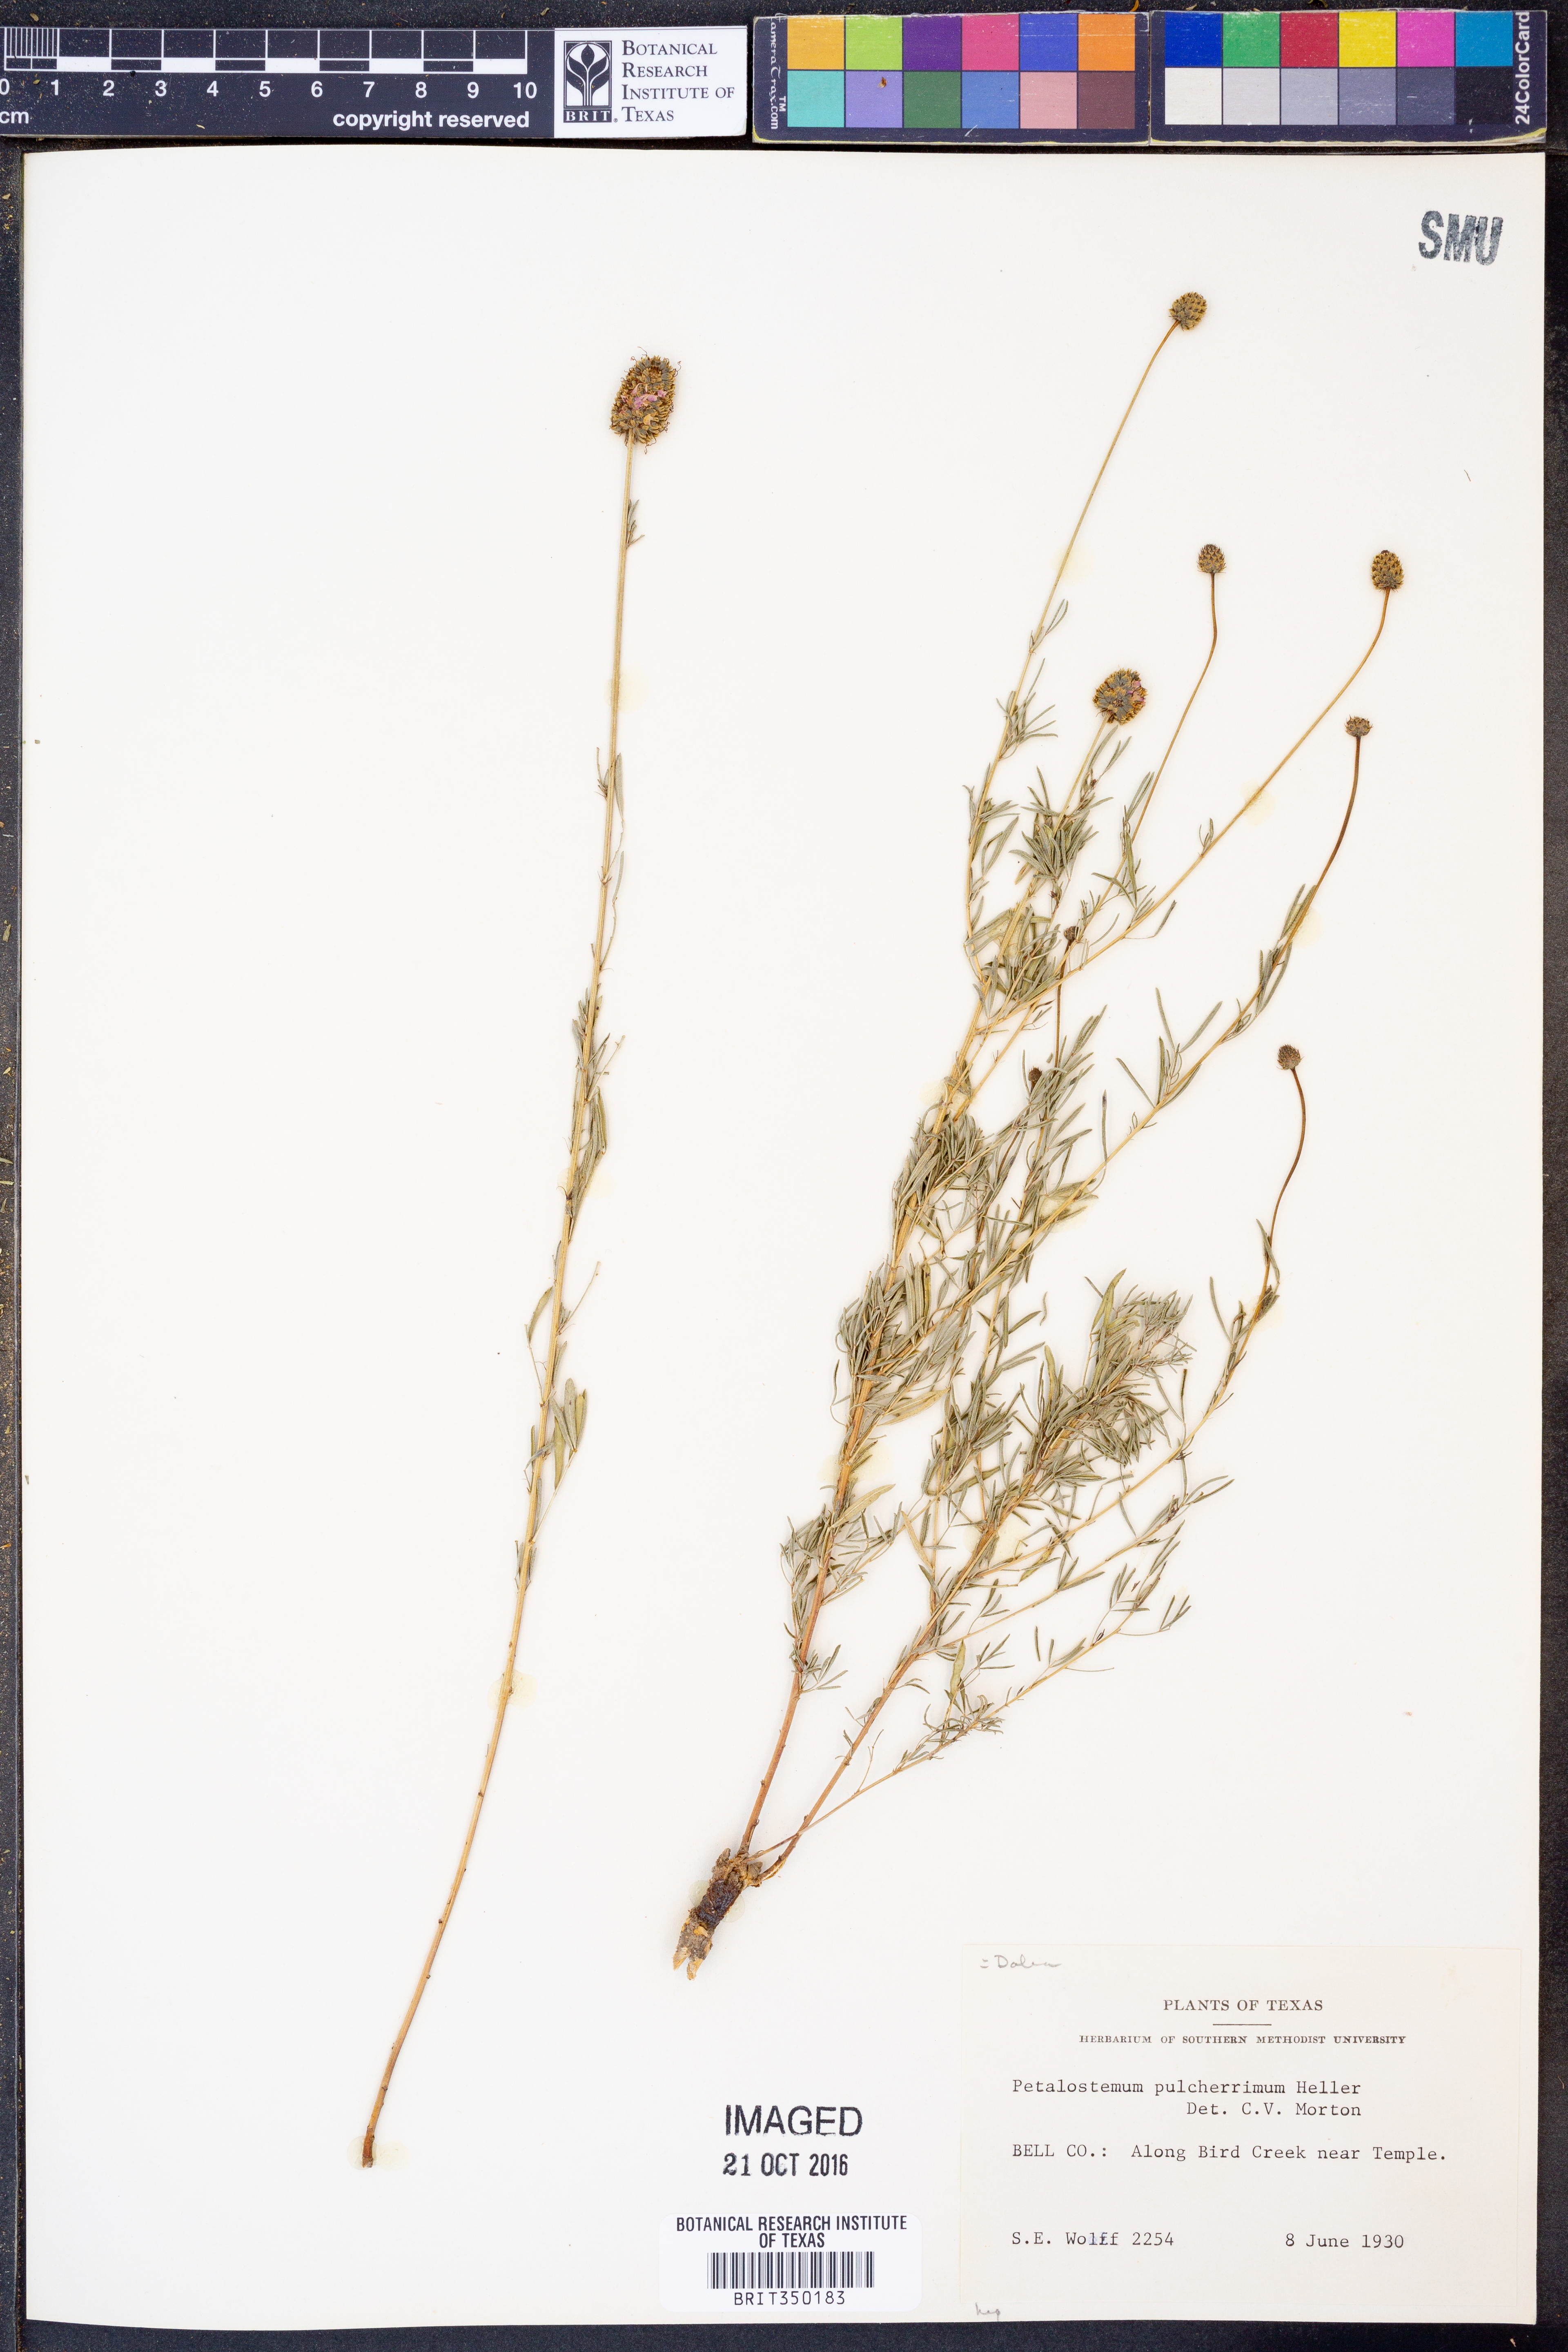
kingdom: Plantae
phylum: Tracheophyta
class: Magnoliopsida
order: Fabales
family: Fabaceae
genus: Dalea
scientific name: Dalea compacta
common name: Compact prairie-clover
